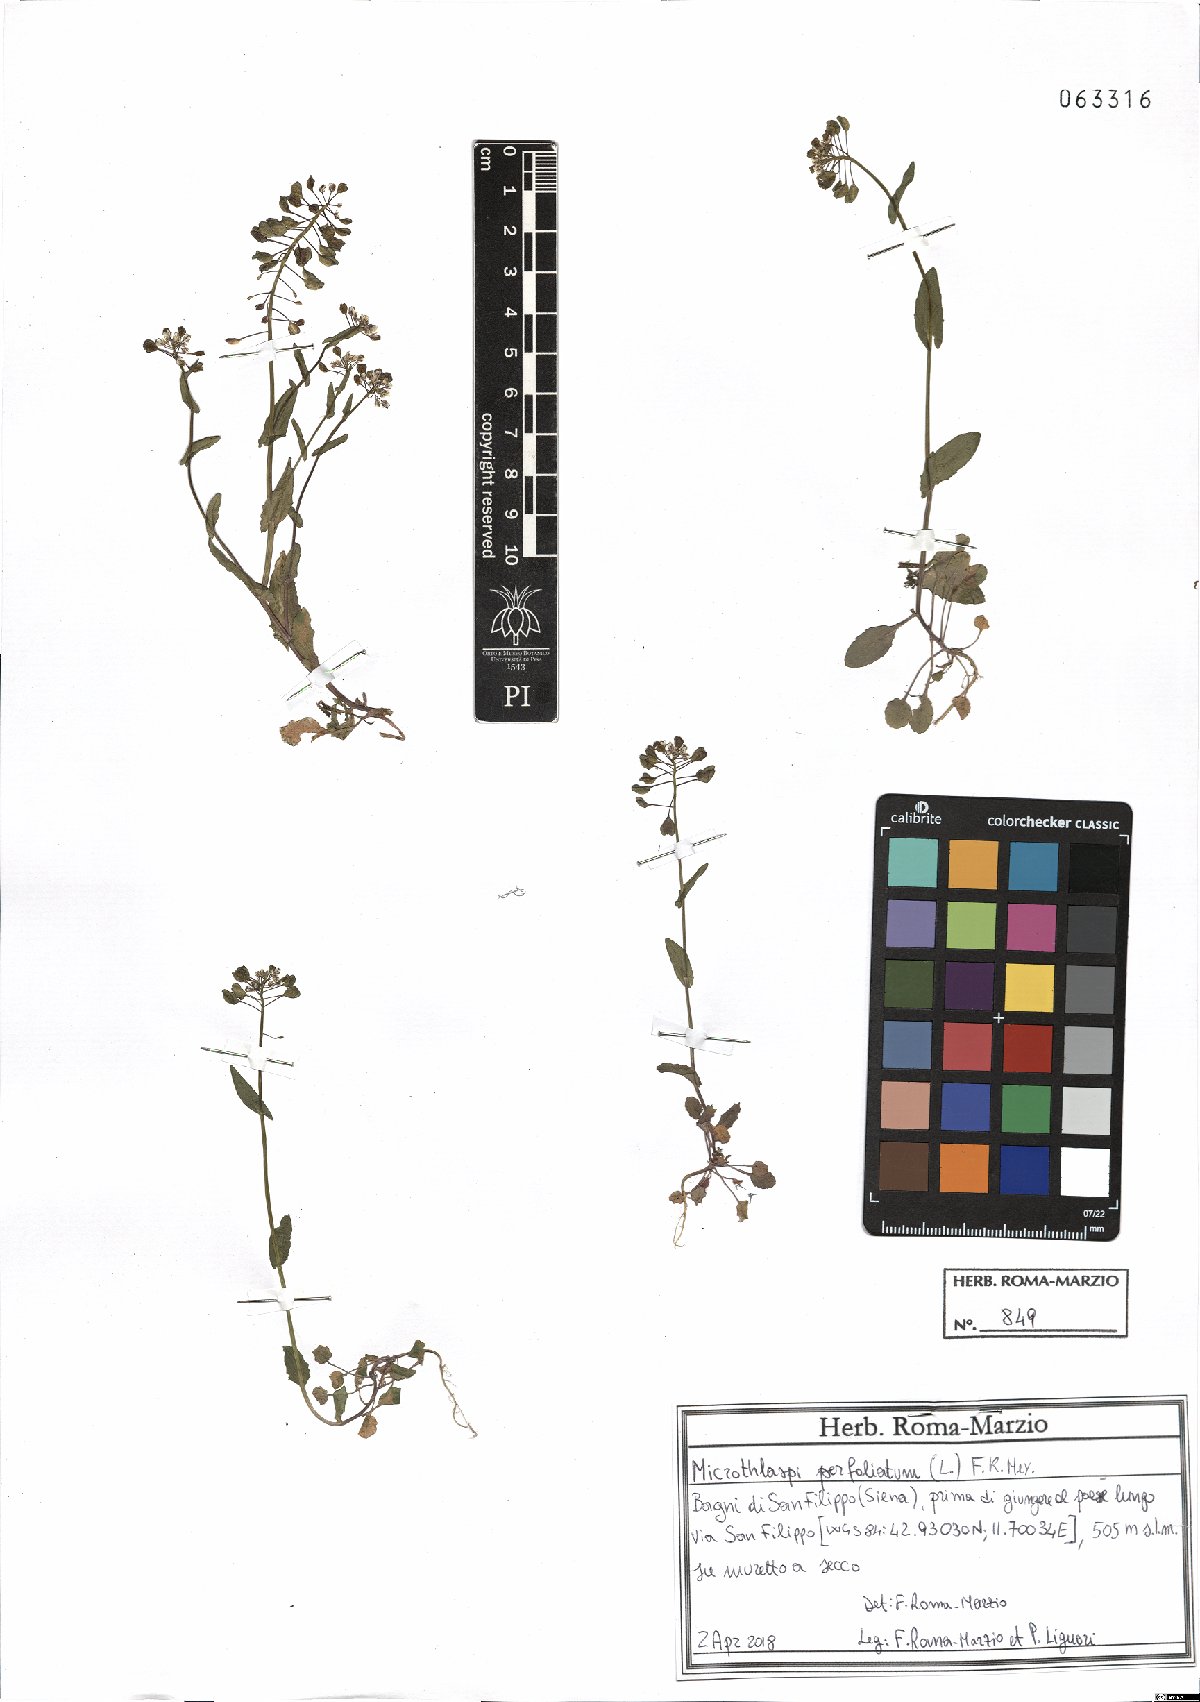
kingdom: Plantae
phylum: Tracheophyta
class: Magnoliopsida
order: Brassicales
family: Brassicaceae
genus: Noccaea
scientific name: Noccaea perfoliata
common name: Perfoliate pennycress
